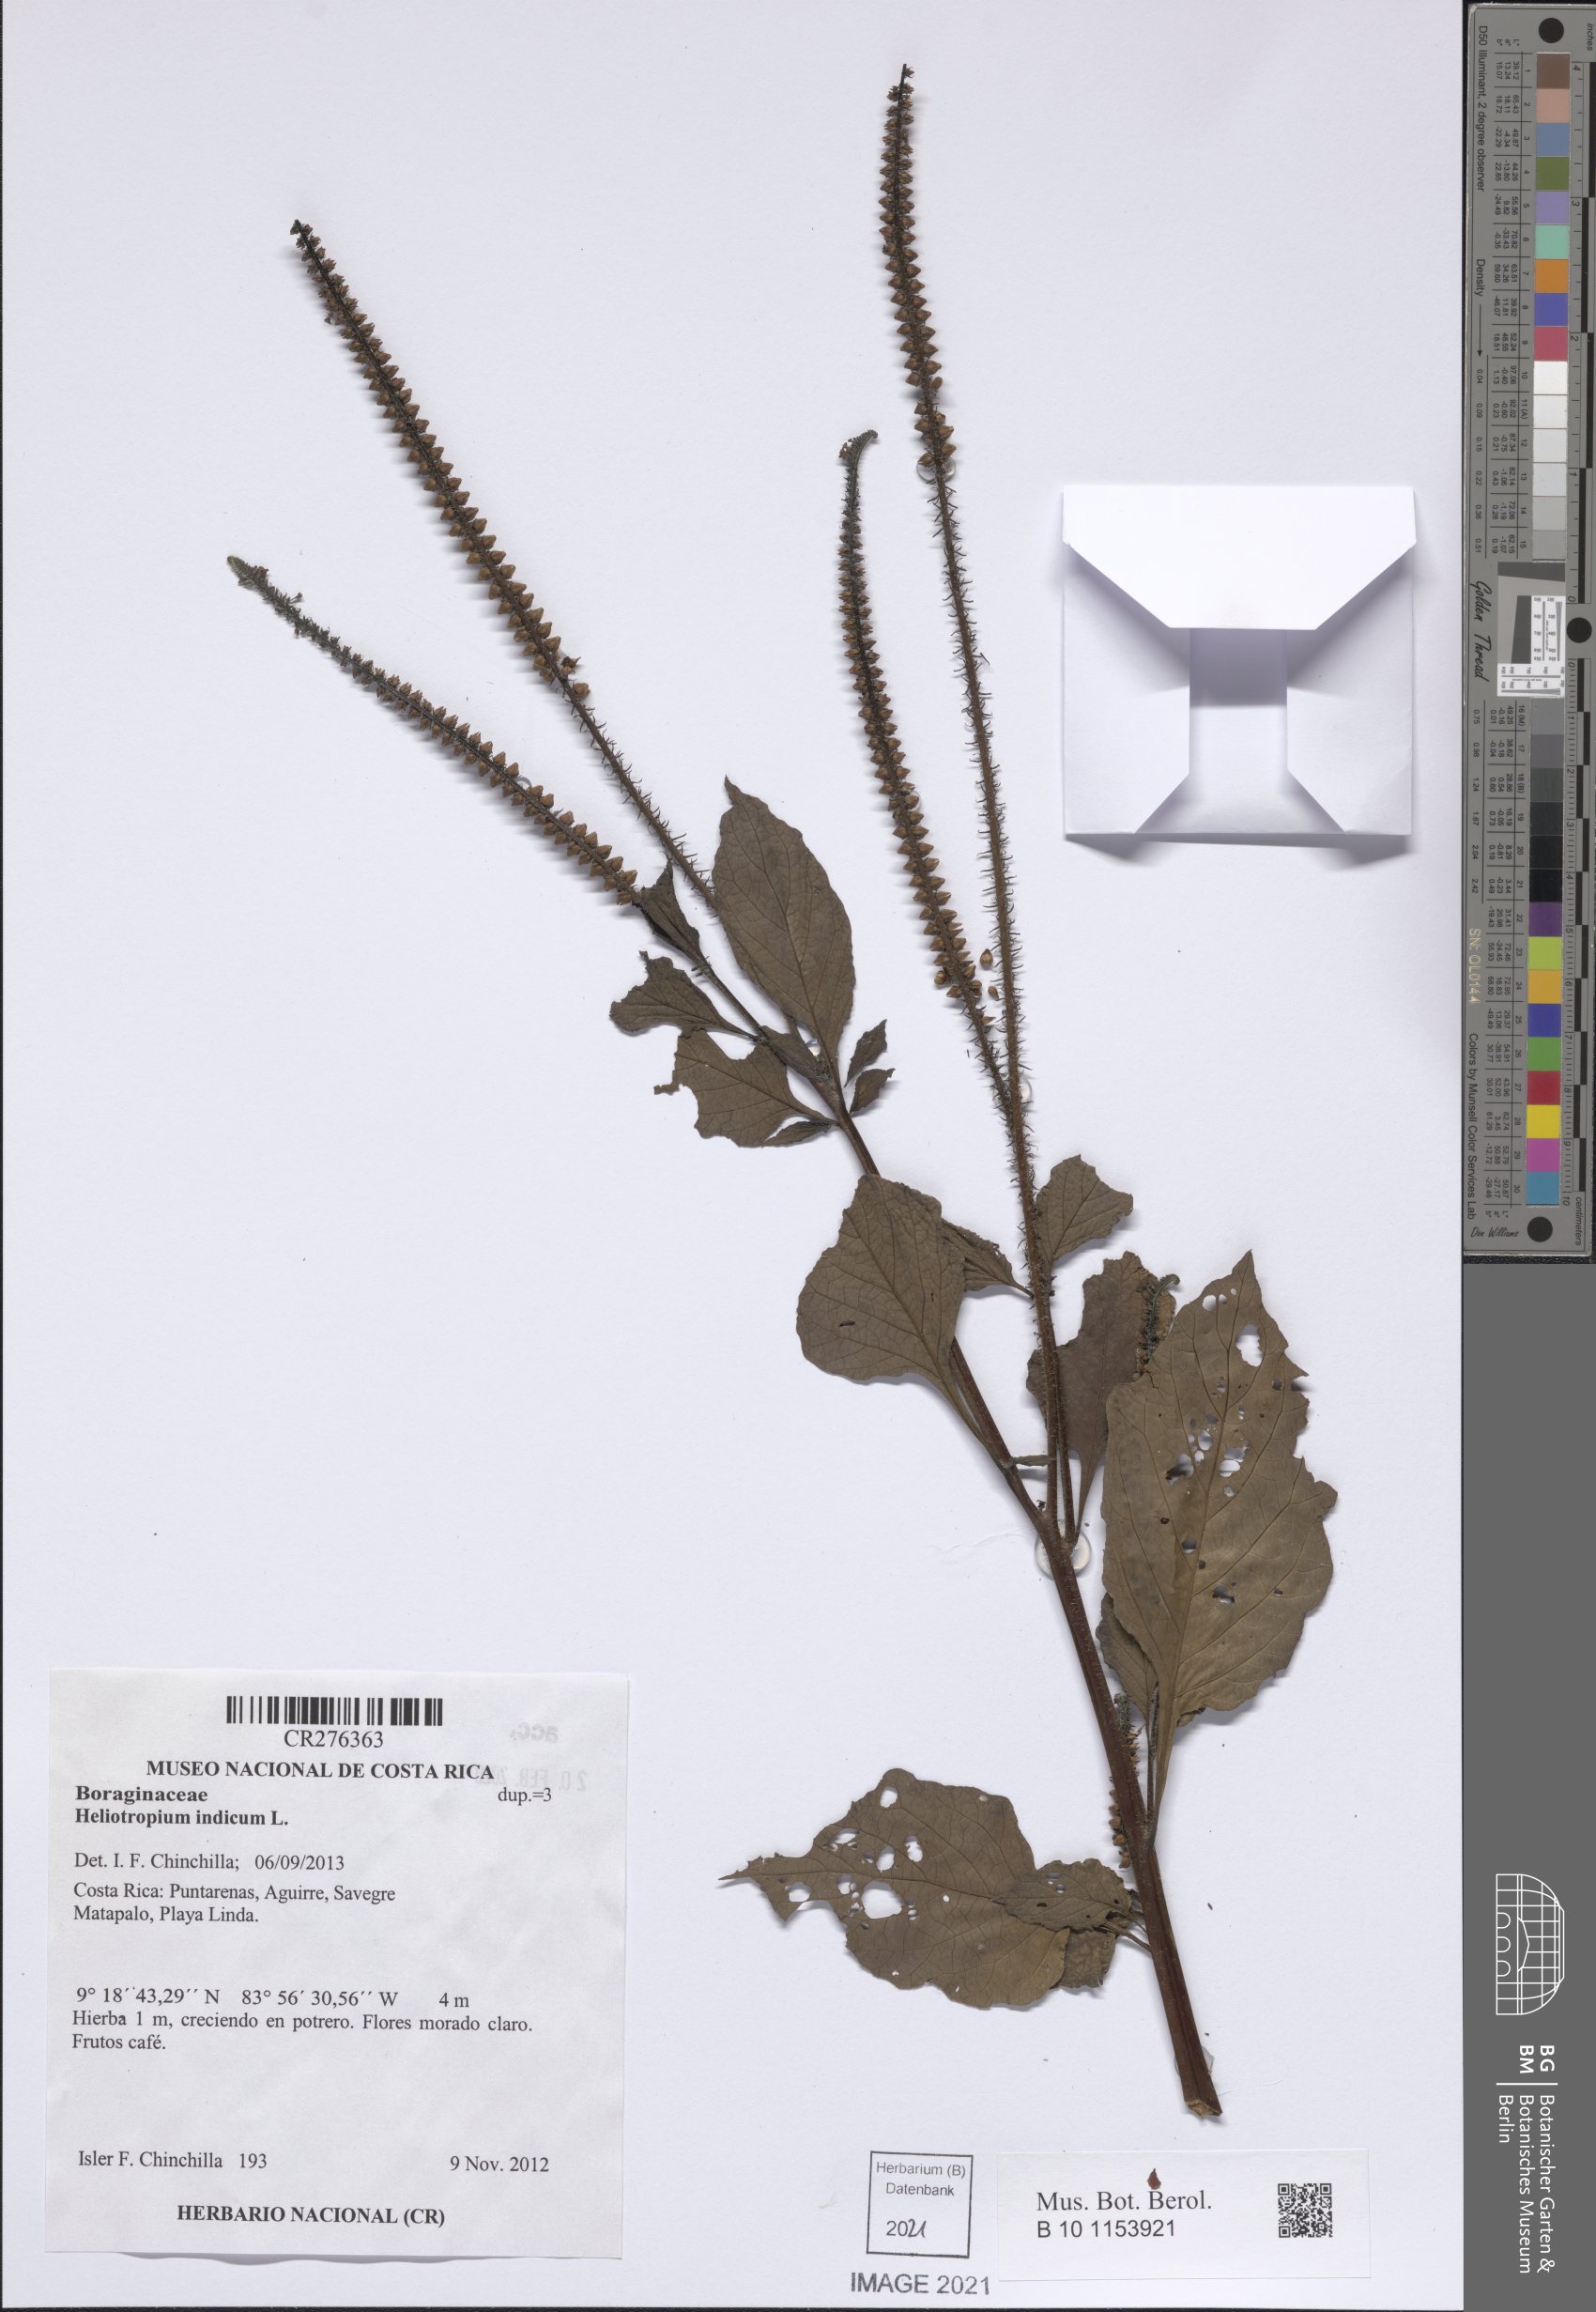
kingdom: Plantae
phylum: Tracheophyta
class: Magnoliopsida
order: Boraginales
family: Heliotropiaceae
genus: Heliotropium
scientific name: Heliotropium indicum
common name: Indian heliotrope
